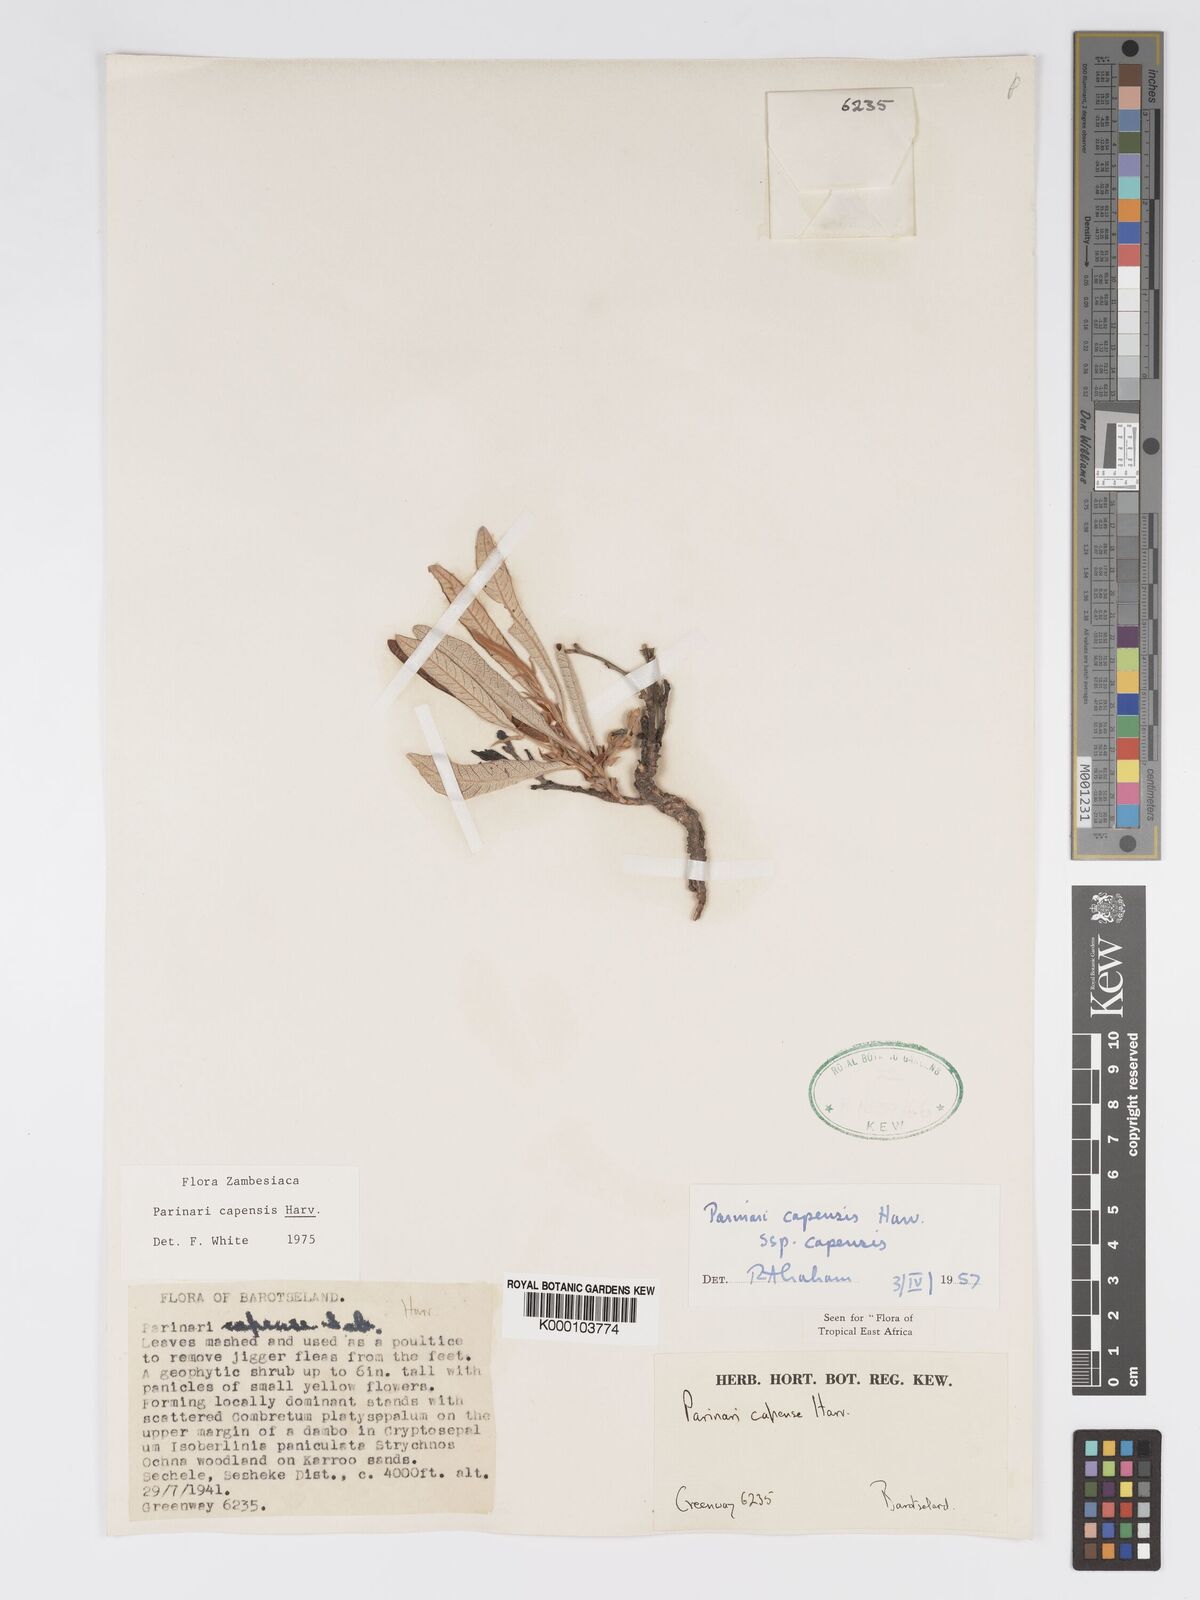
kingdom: Plantae
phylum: Tracheophyta
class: Magnoliopsida
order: Malpighiales
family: Chrysobalanaceae
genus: Parinari
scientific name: Parinari capensis
